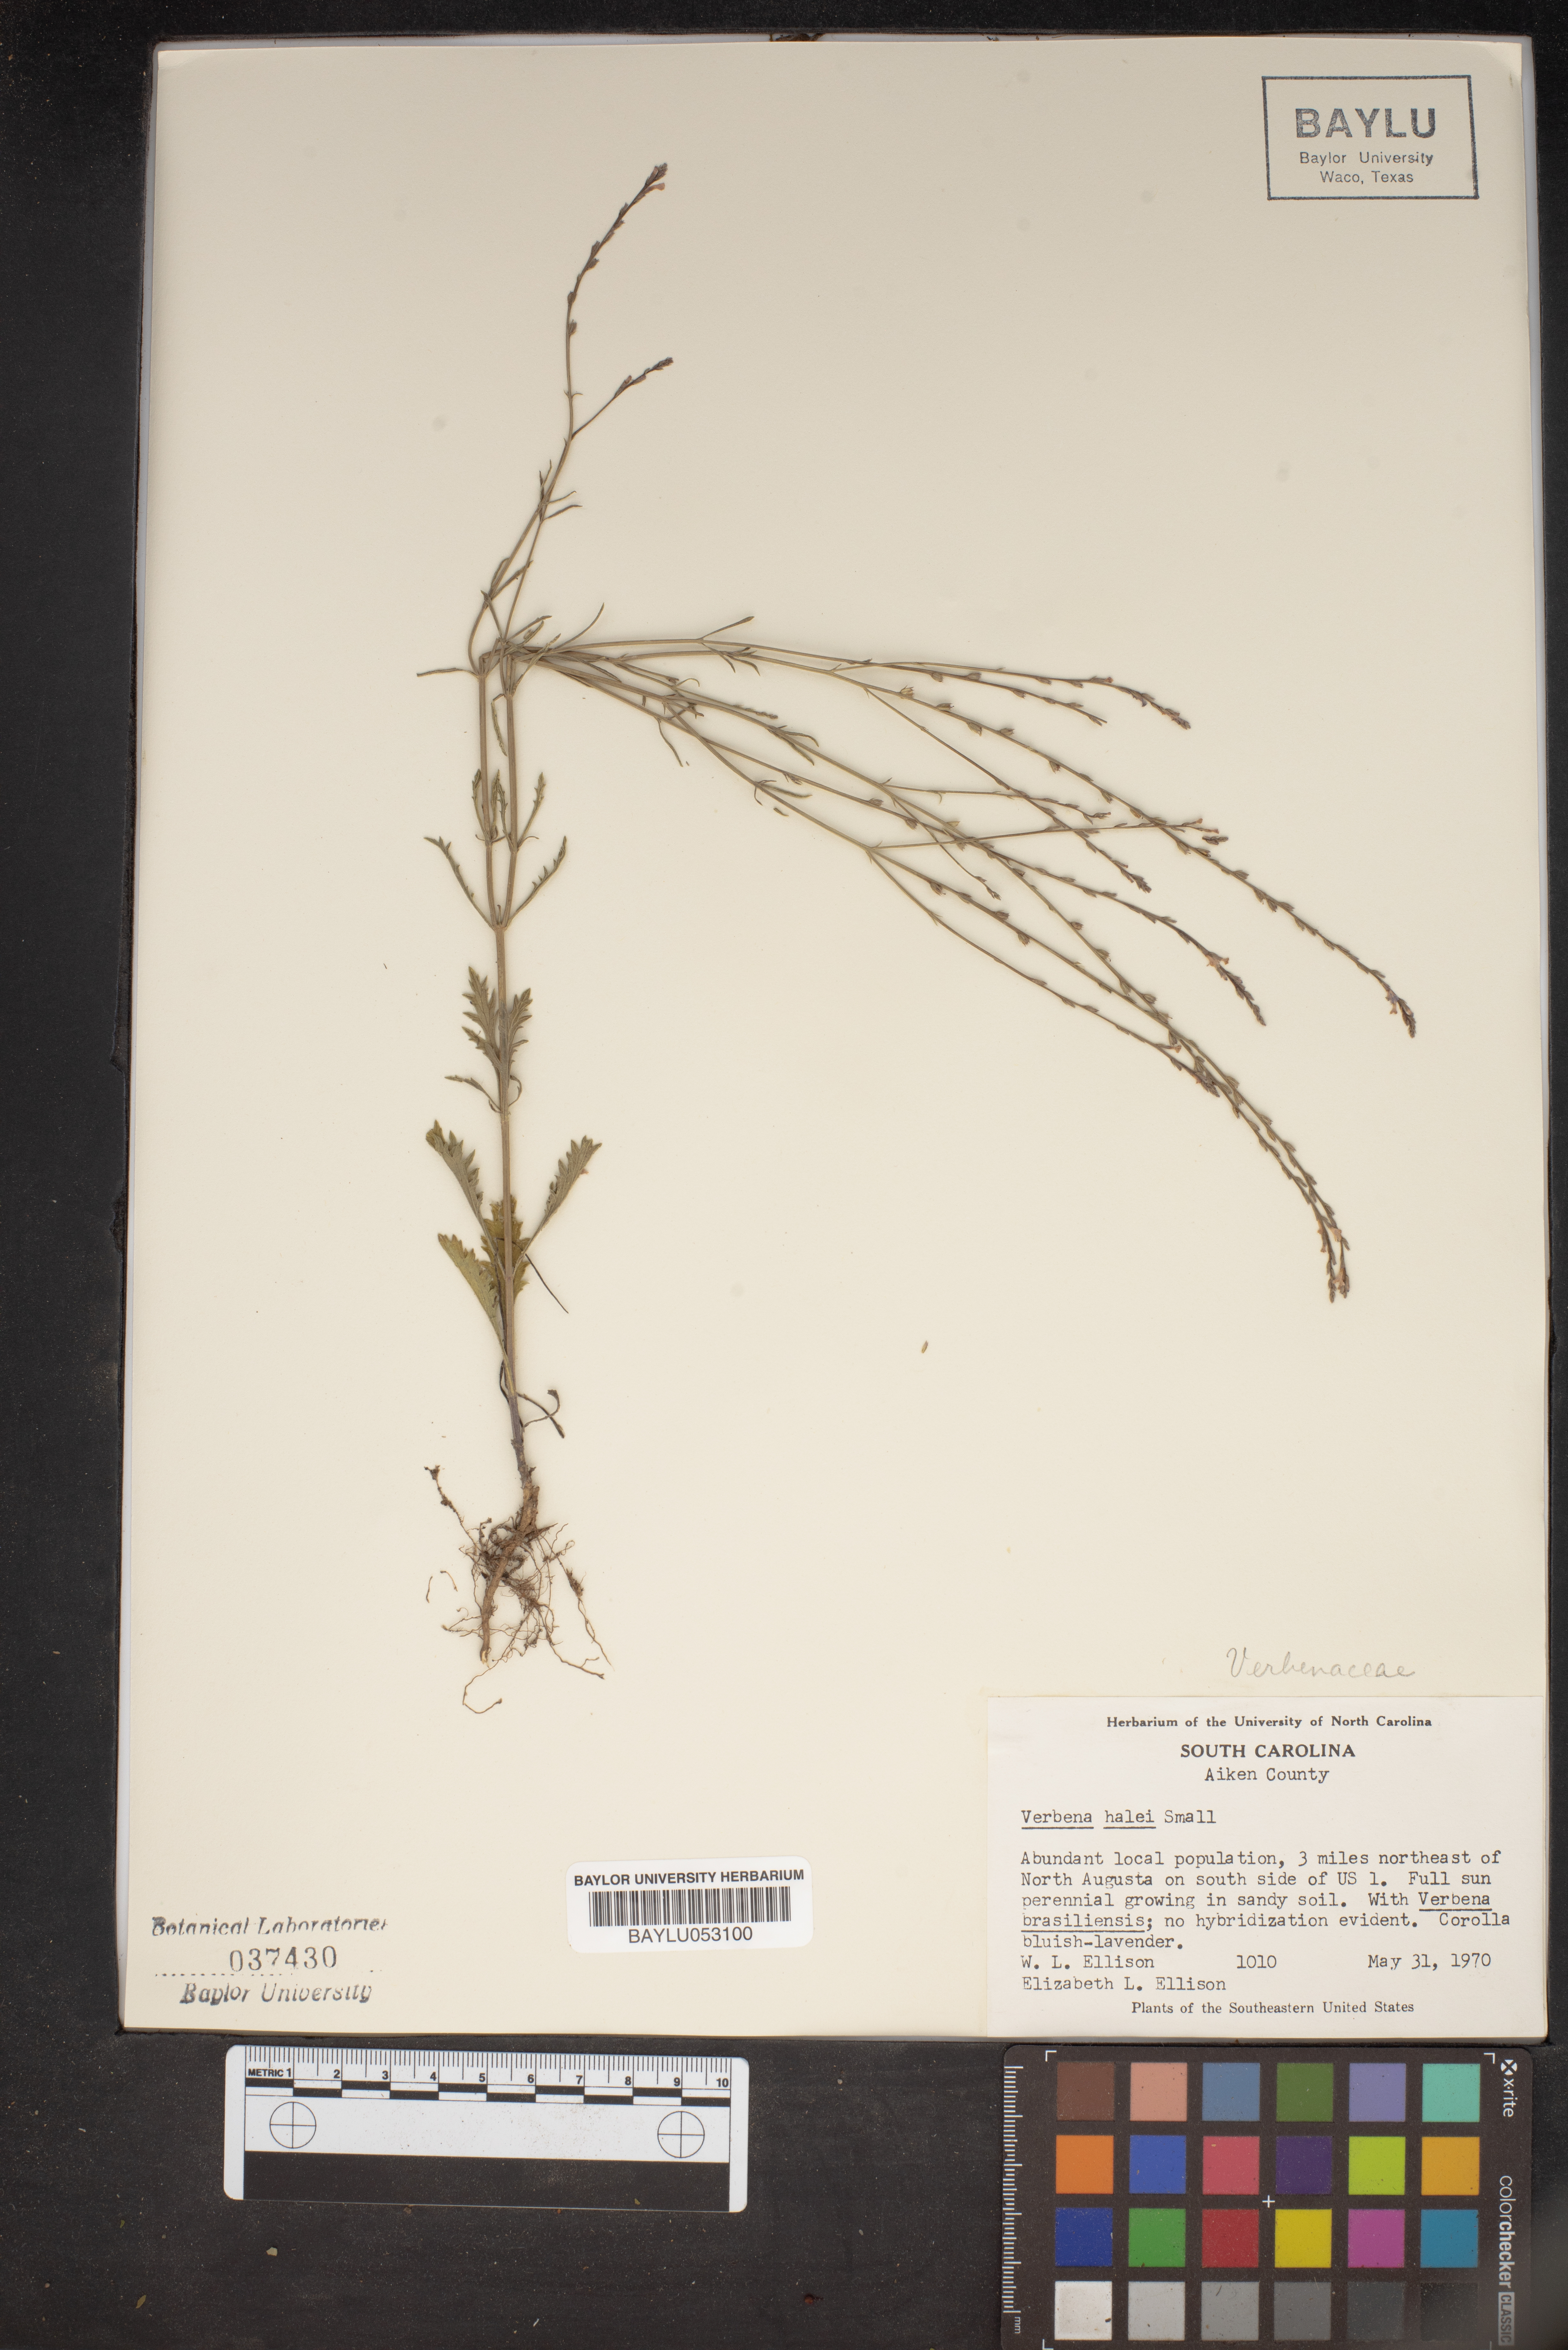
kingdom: Plantae
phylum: Tracheophyta
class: Magnoliopsida
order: Lamiales
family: Verbenaceae
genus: Verbena
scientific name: Verbena halei
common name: Texas vervain
